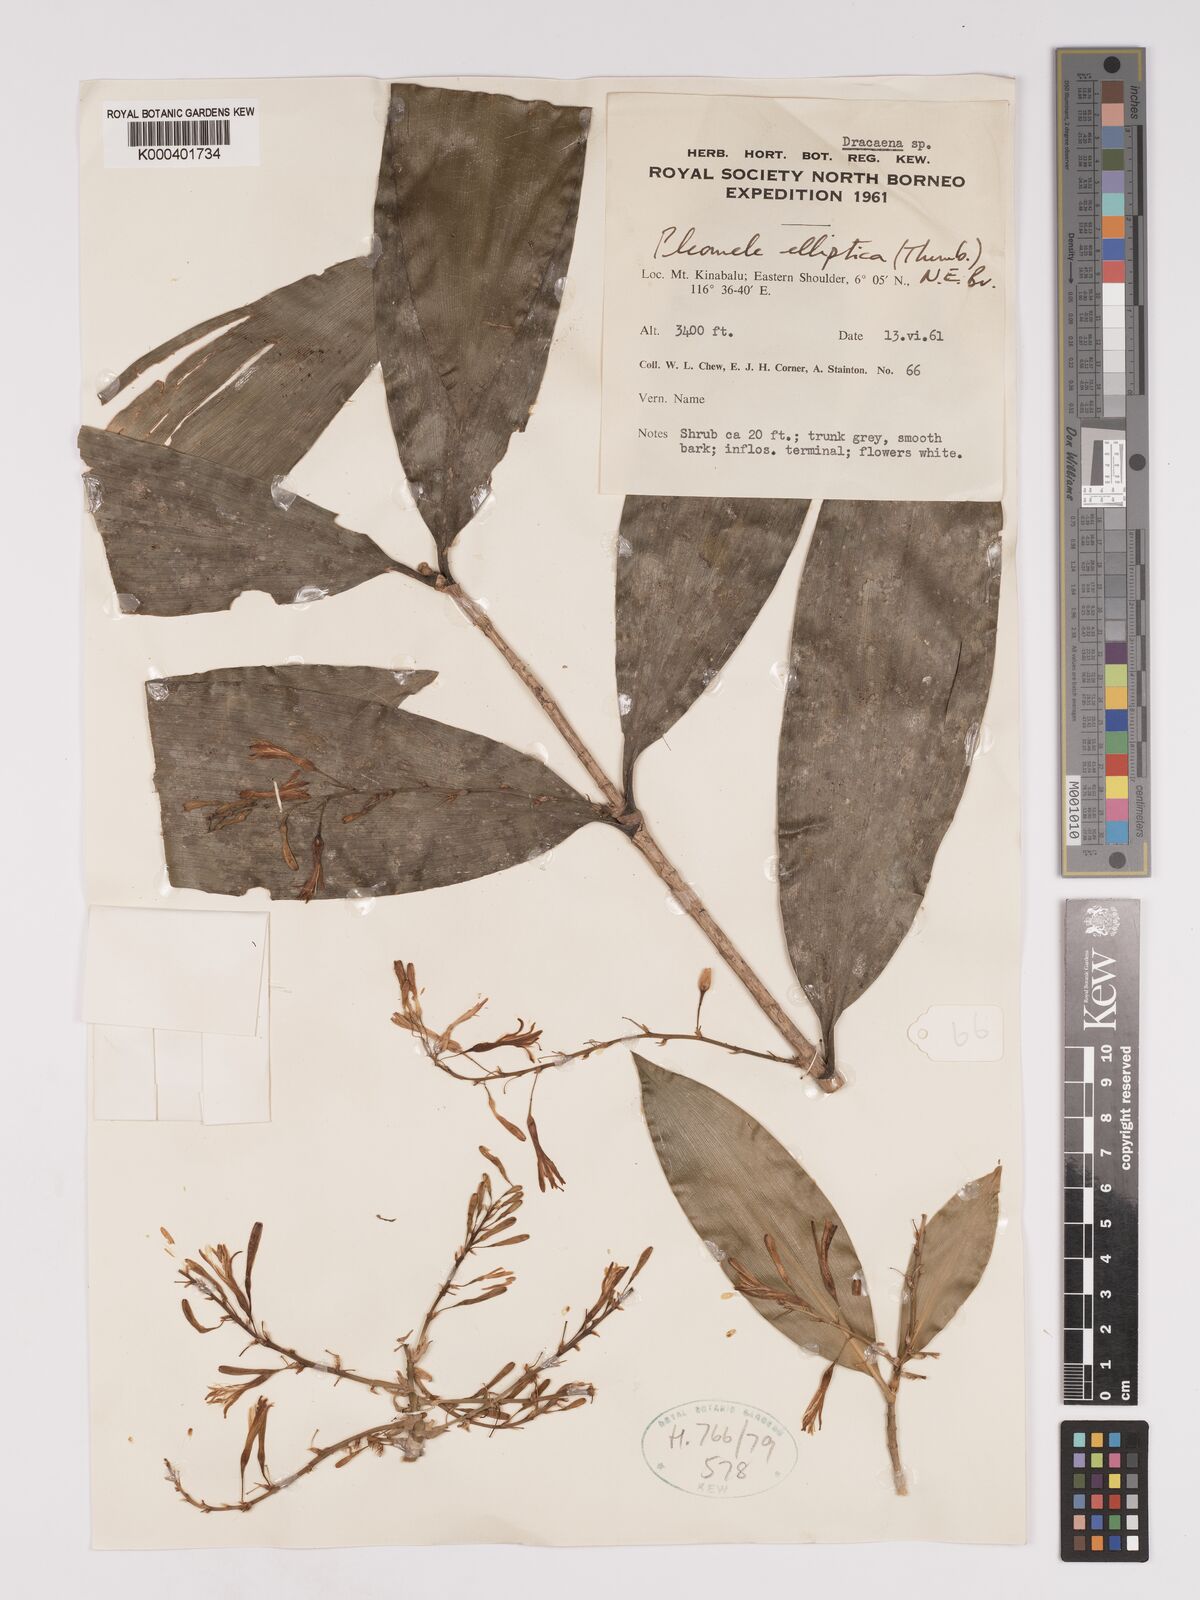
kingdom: Plantae
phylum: Tracheophyta
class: Liliopsida
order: Asparagales
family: Asparagaceae
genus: Dracaena
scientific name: Dracaena elliptica
